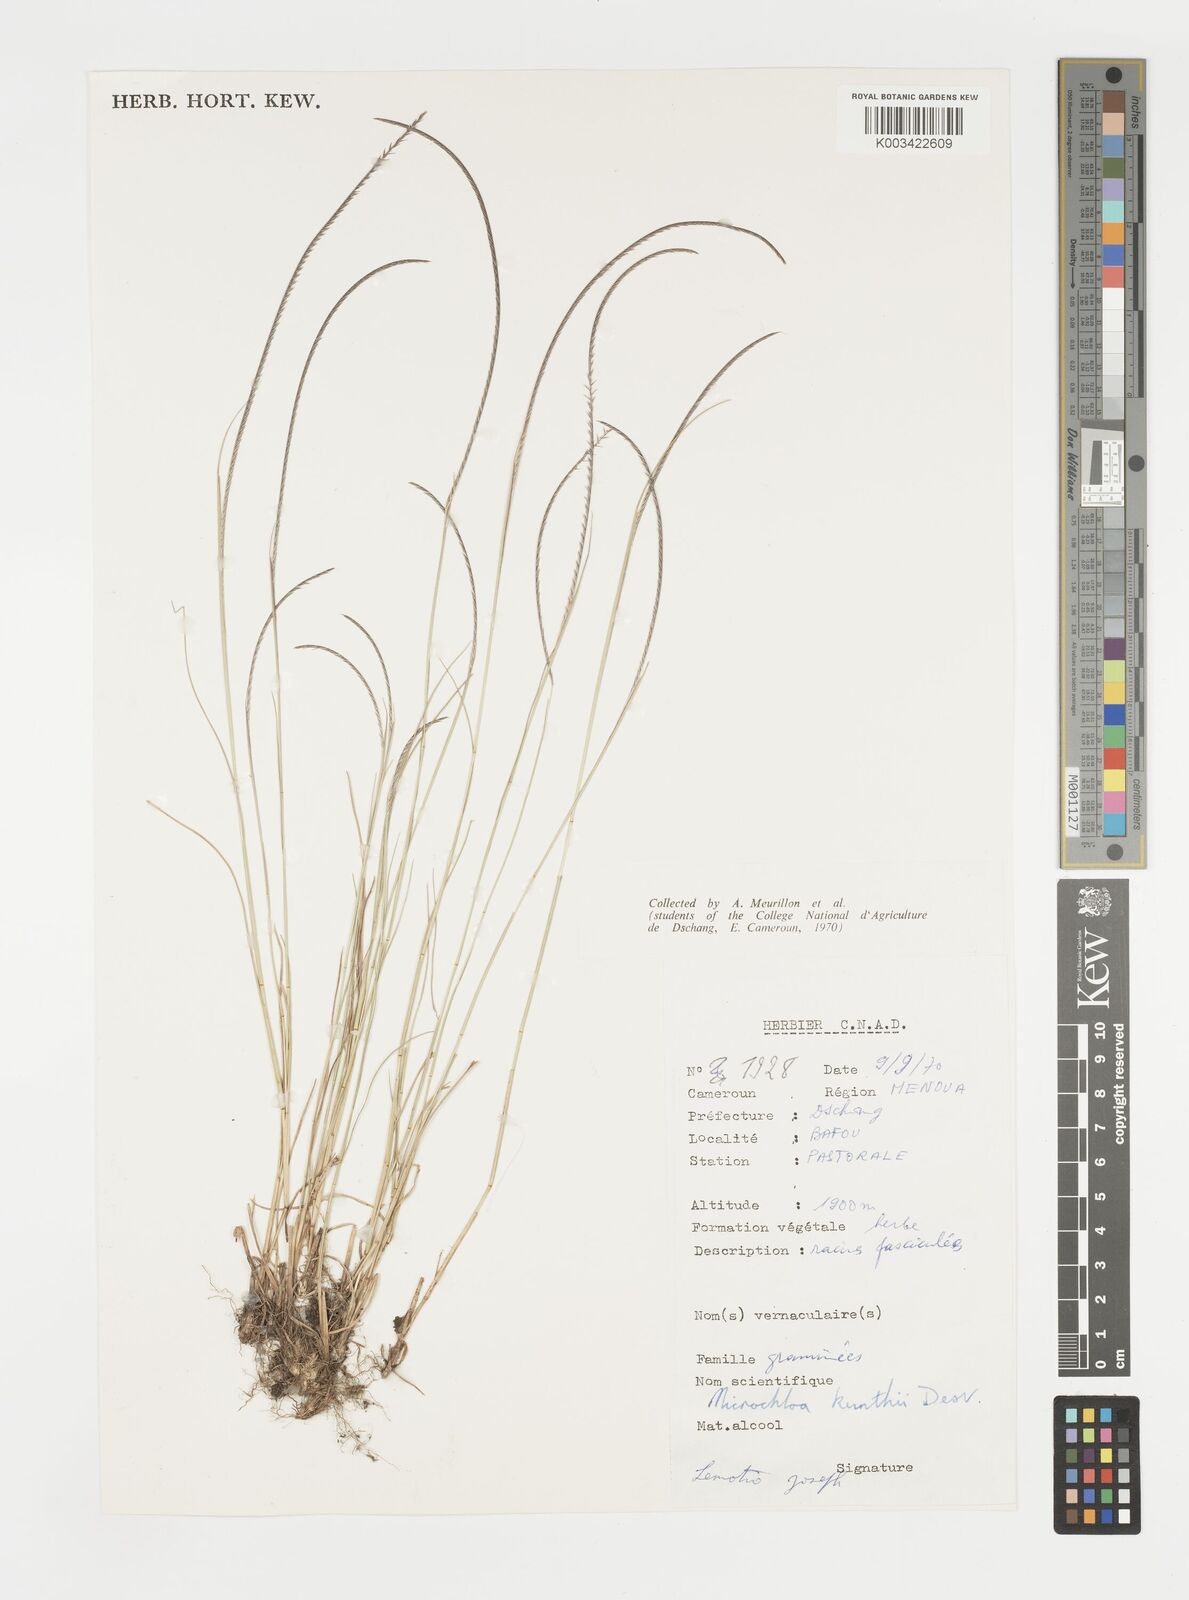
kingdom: Plantae
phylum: Tracheophyta
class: Liliopsida
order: Poales
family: Poaceae
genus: Microchloa
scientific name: Microchloa kunthii
